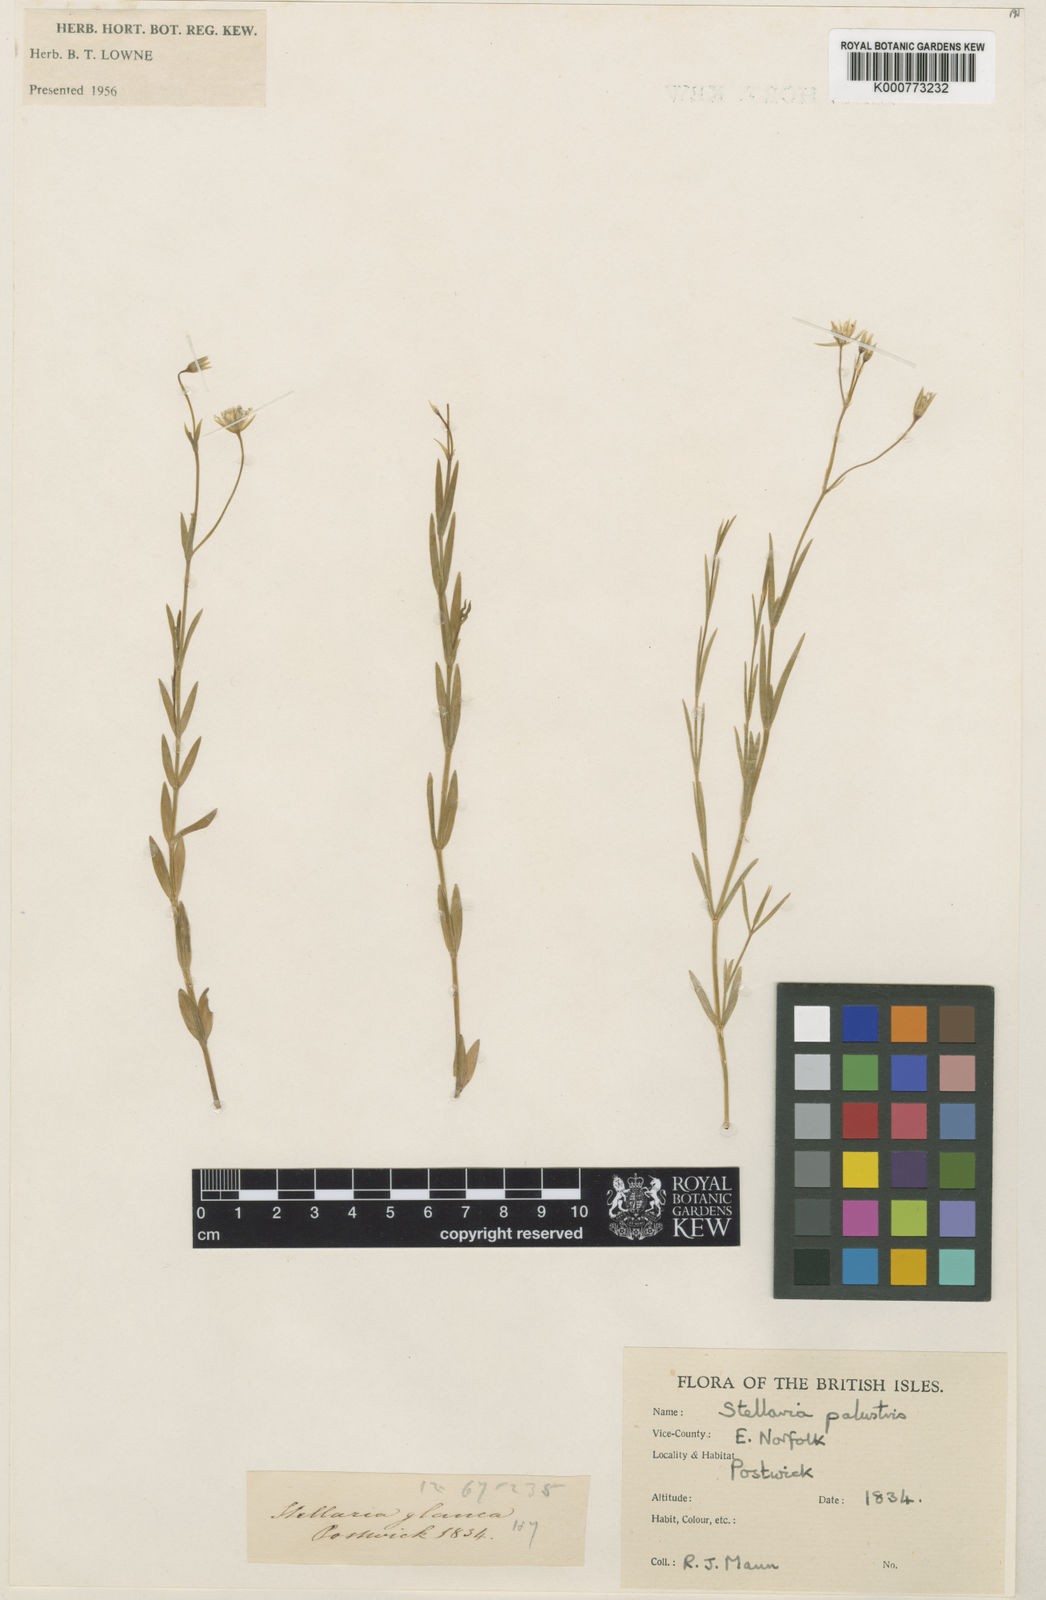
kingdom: Plantae
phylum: Tracheophyta
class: Magnoliopsida
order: Caryophyllales
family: Caryophyllaceae
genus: Stellaria
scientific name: Stellaria
